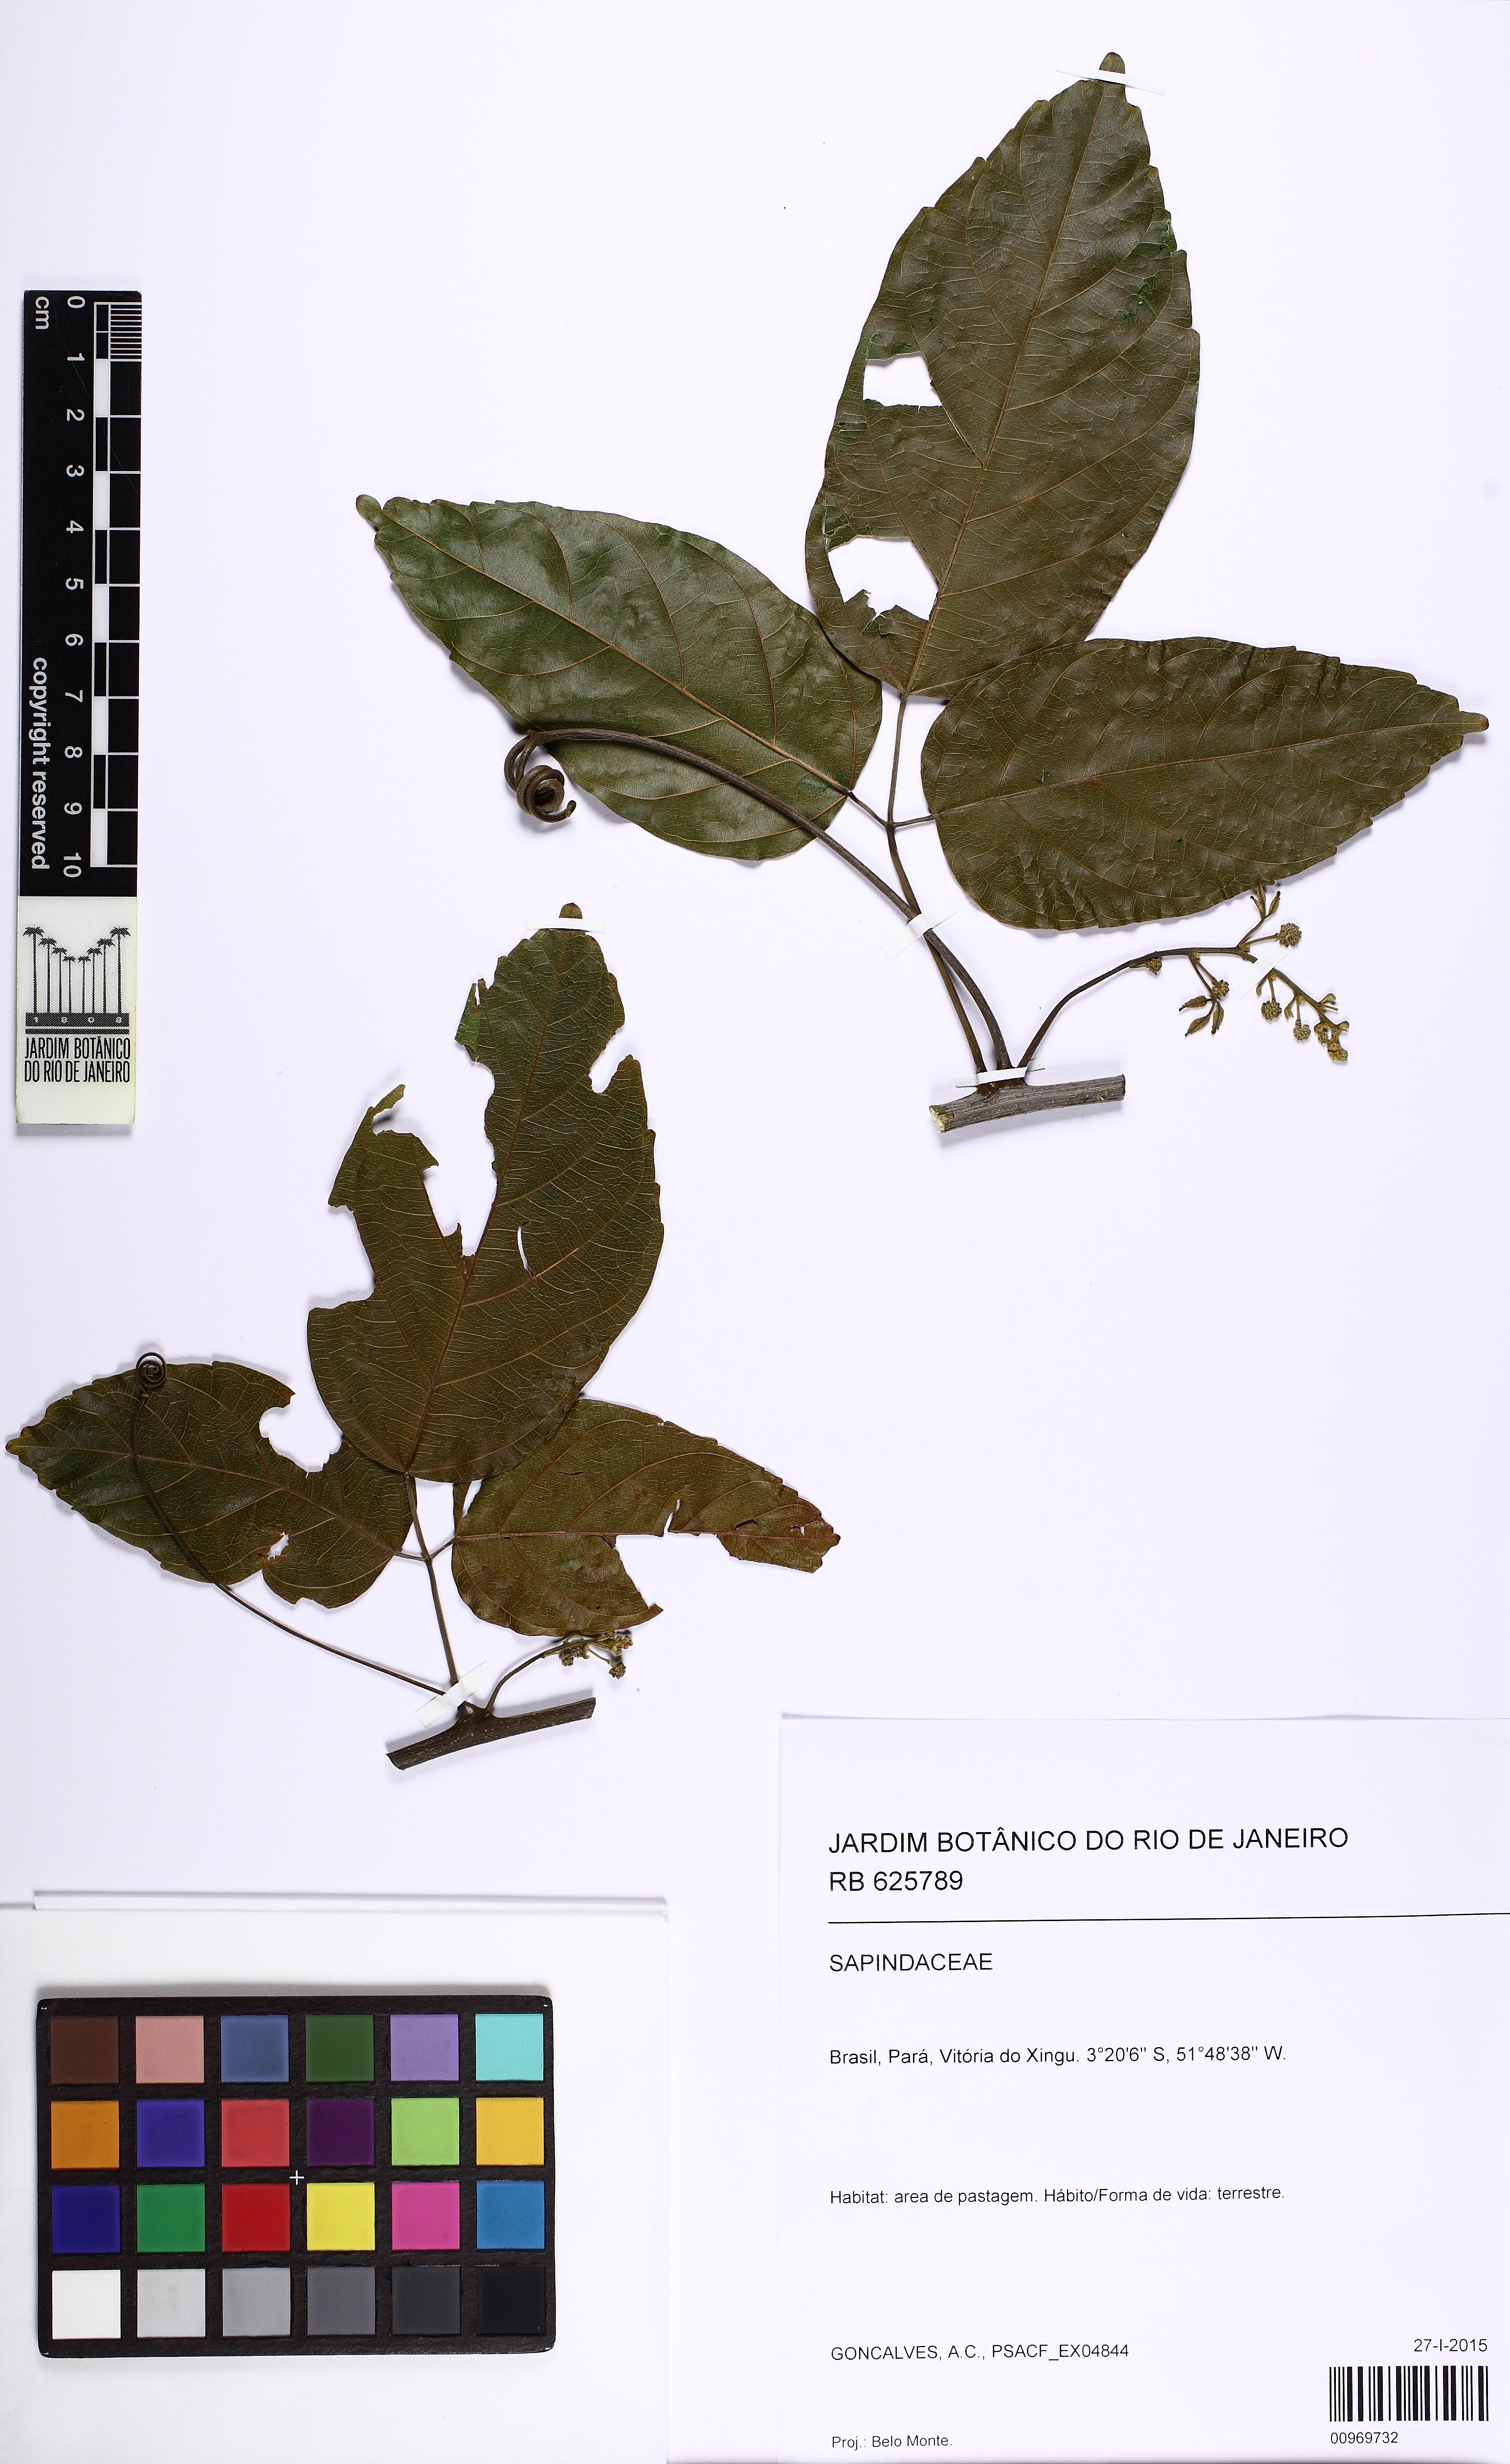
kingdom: Plantae
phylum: Tracheophyta
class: Magnoliopsida
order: Sapindales
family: Sapindaceae
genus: Thinouia
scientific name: Thinouia myriantha
